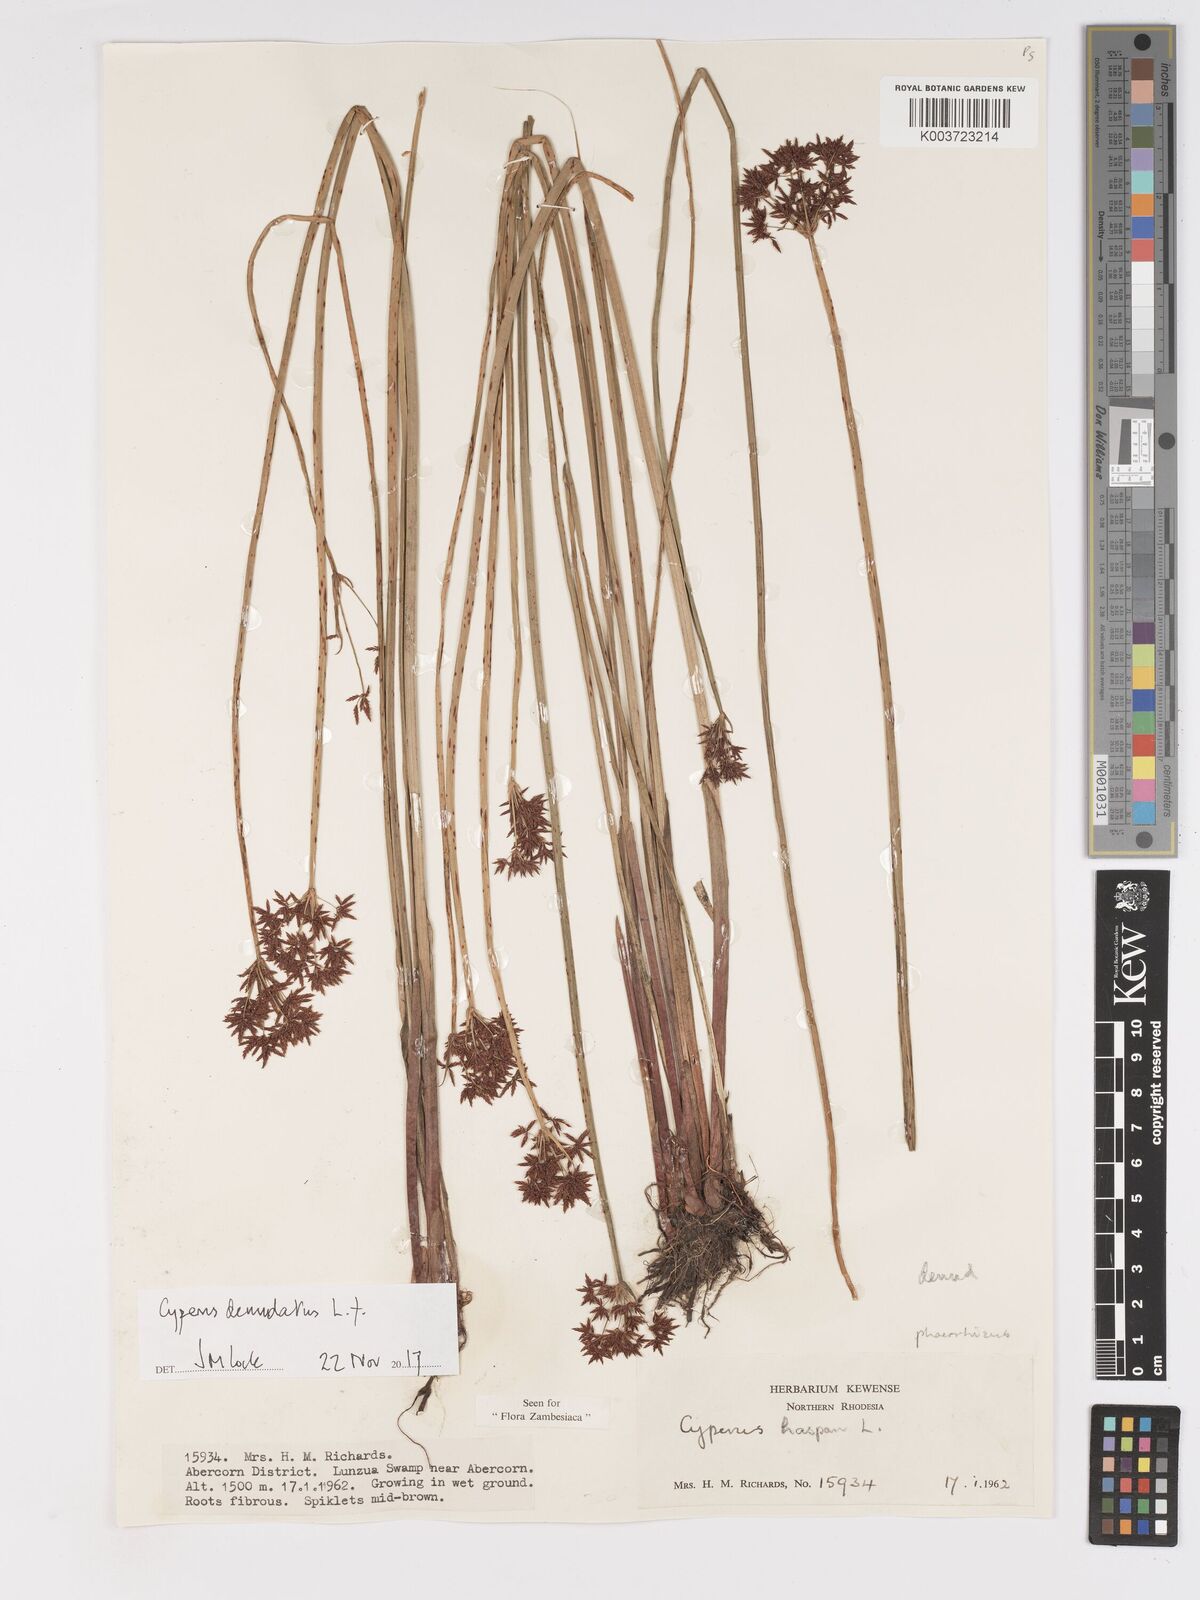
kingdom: Plantae
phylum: Tracheophyta
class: Liliopsida
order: Poales
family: Cyperaceae
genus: Cyperus
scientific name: Cyperus haspan
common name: Haspan flatsedge
